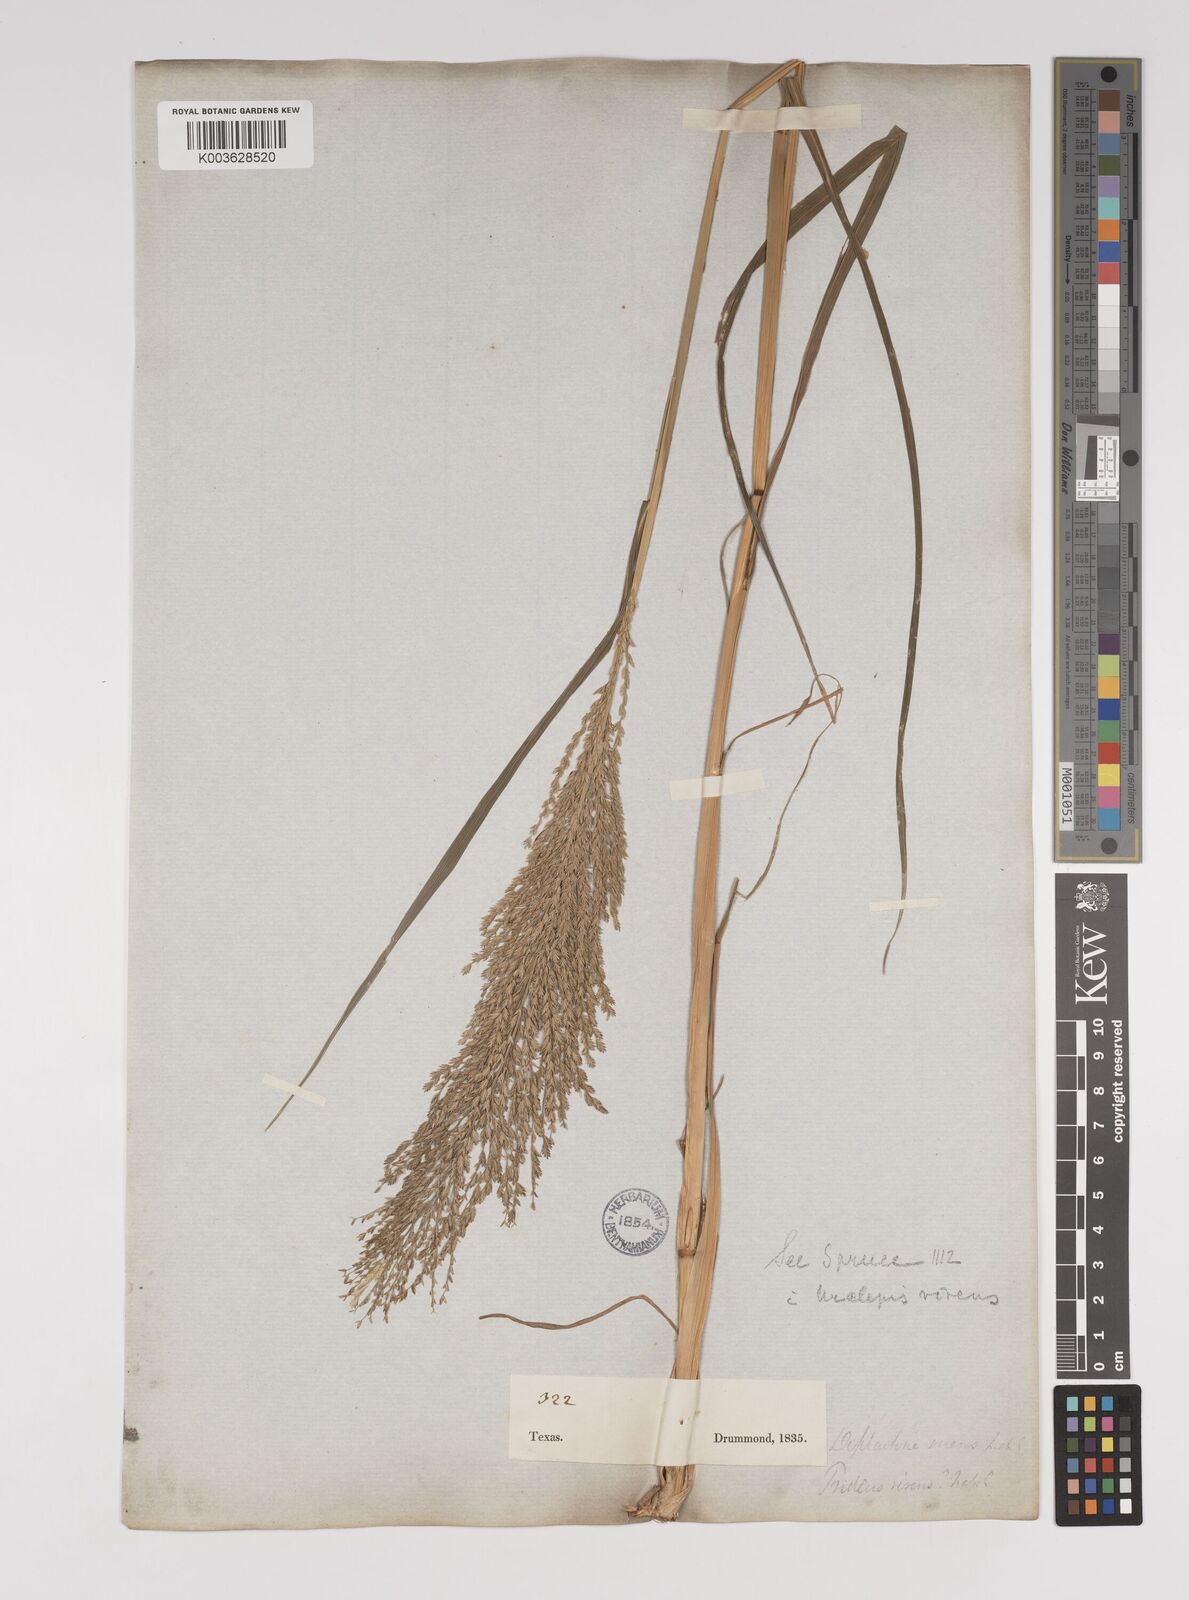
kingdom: Plantae
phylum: Tracheophyta
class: Liliopsida
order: Poales
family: Poaceae
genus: Leptochloa
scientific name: Leptochloa panicoides
